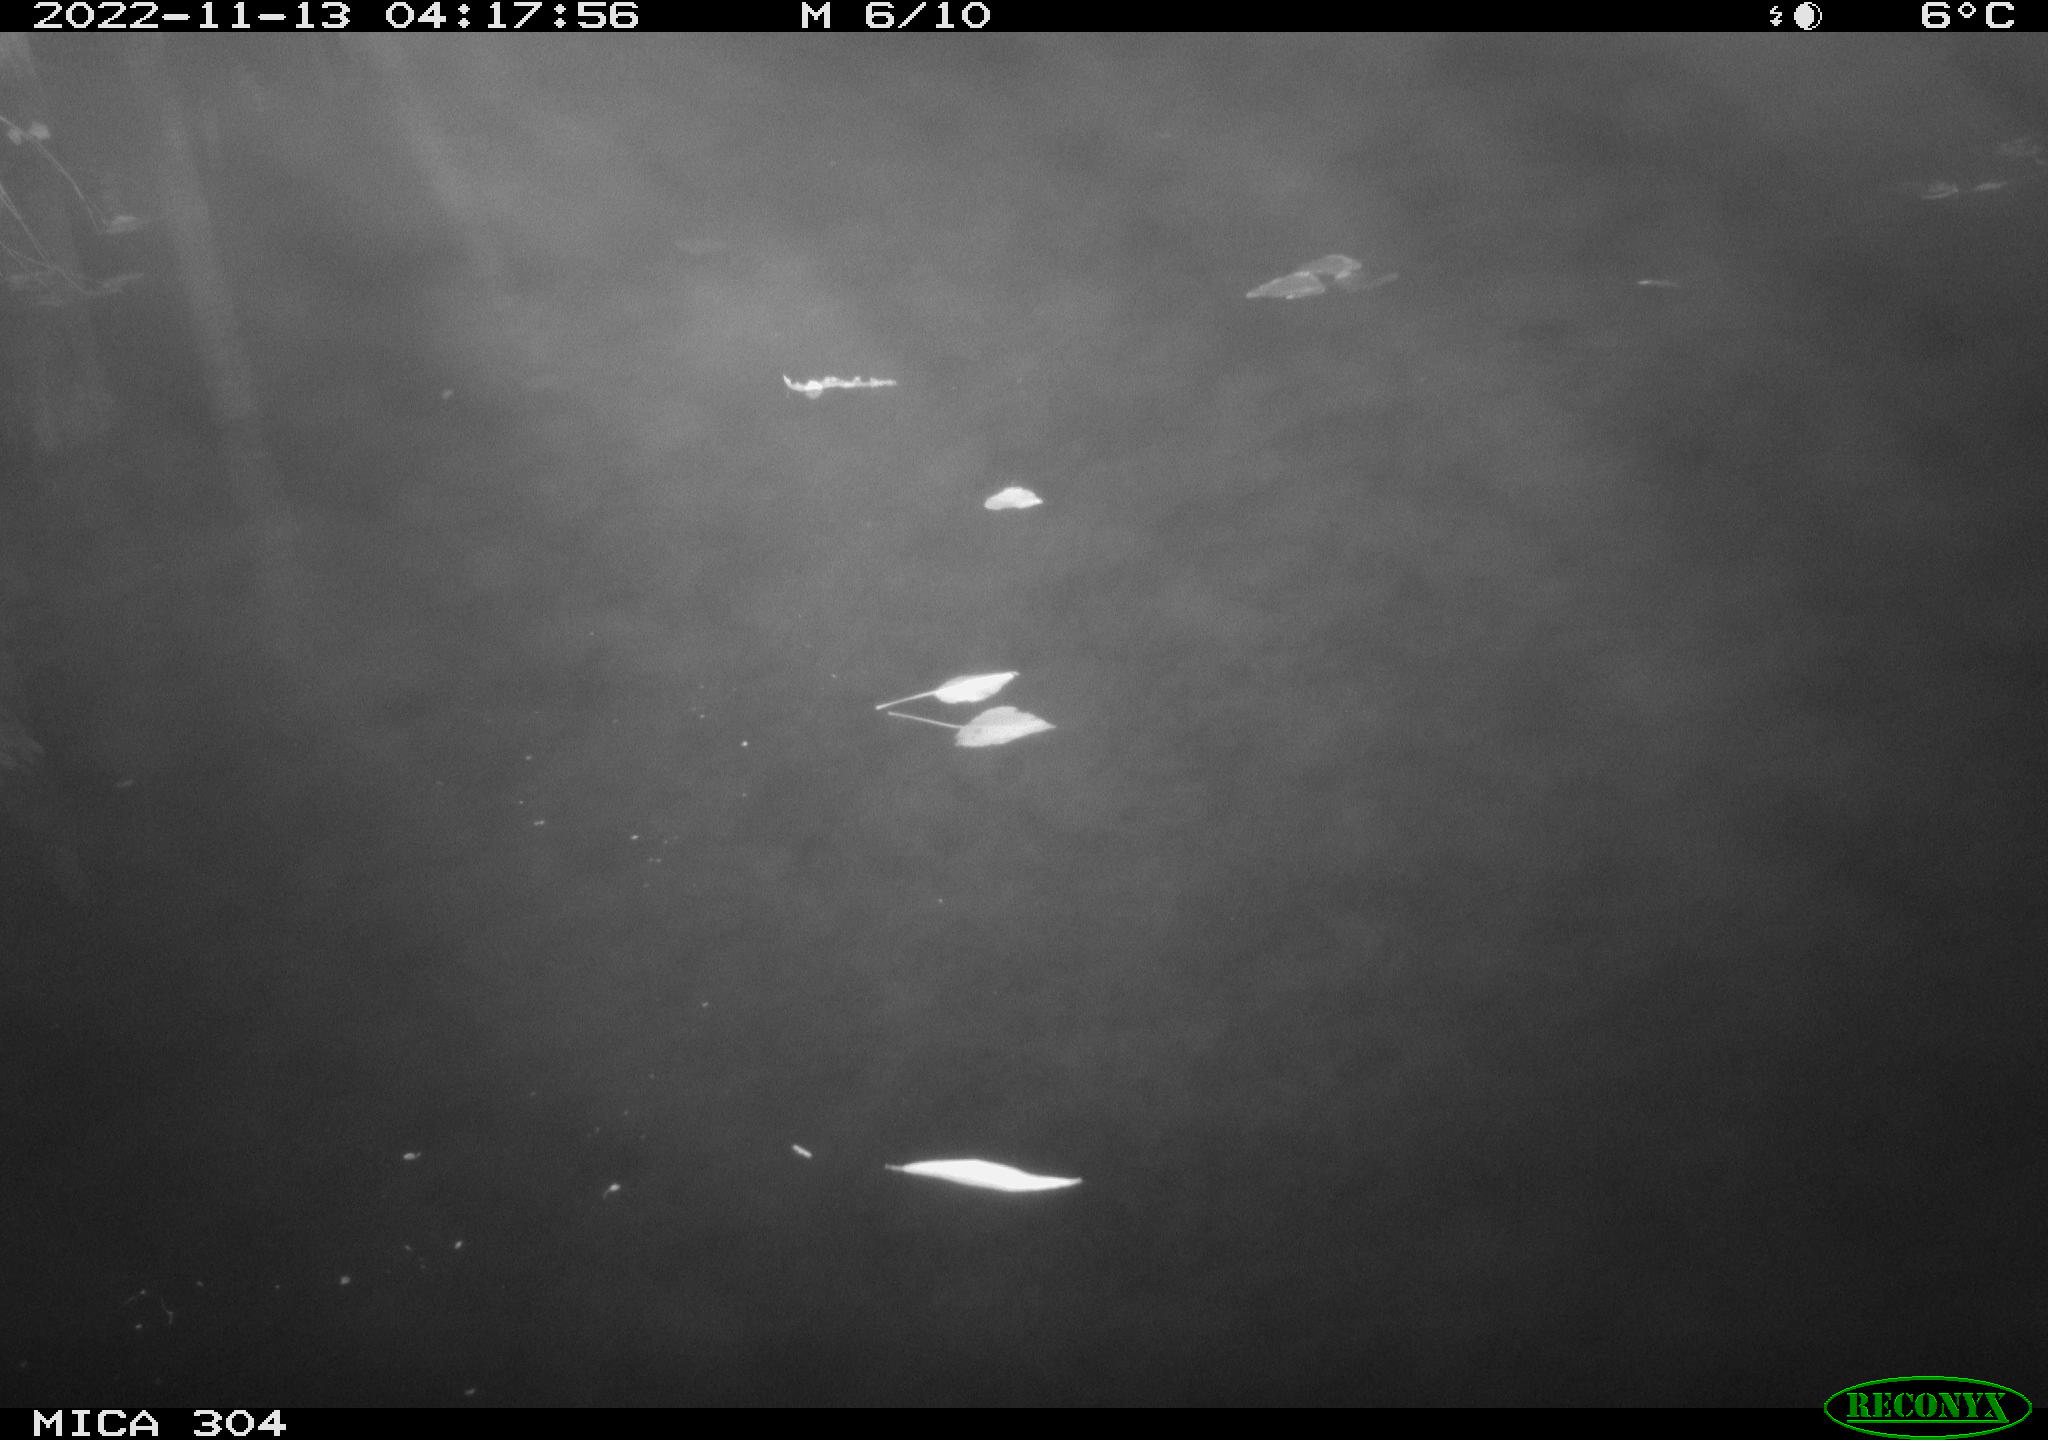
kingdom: Animalia
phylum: Chordata
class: Aves
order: Anseriformes
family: Anatidae
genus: Anas
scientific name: Anas
